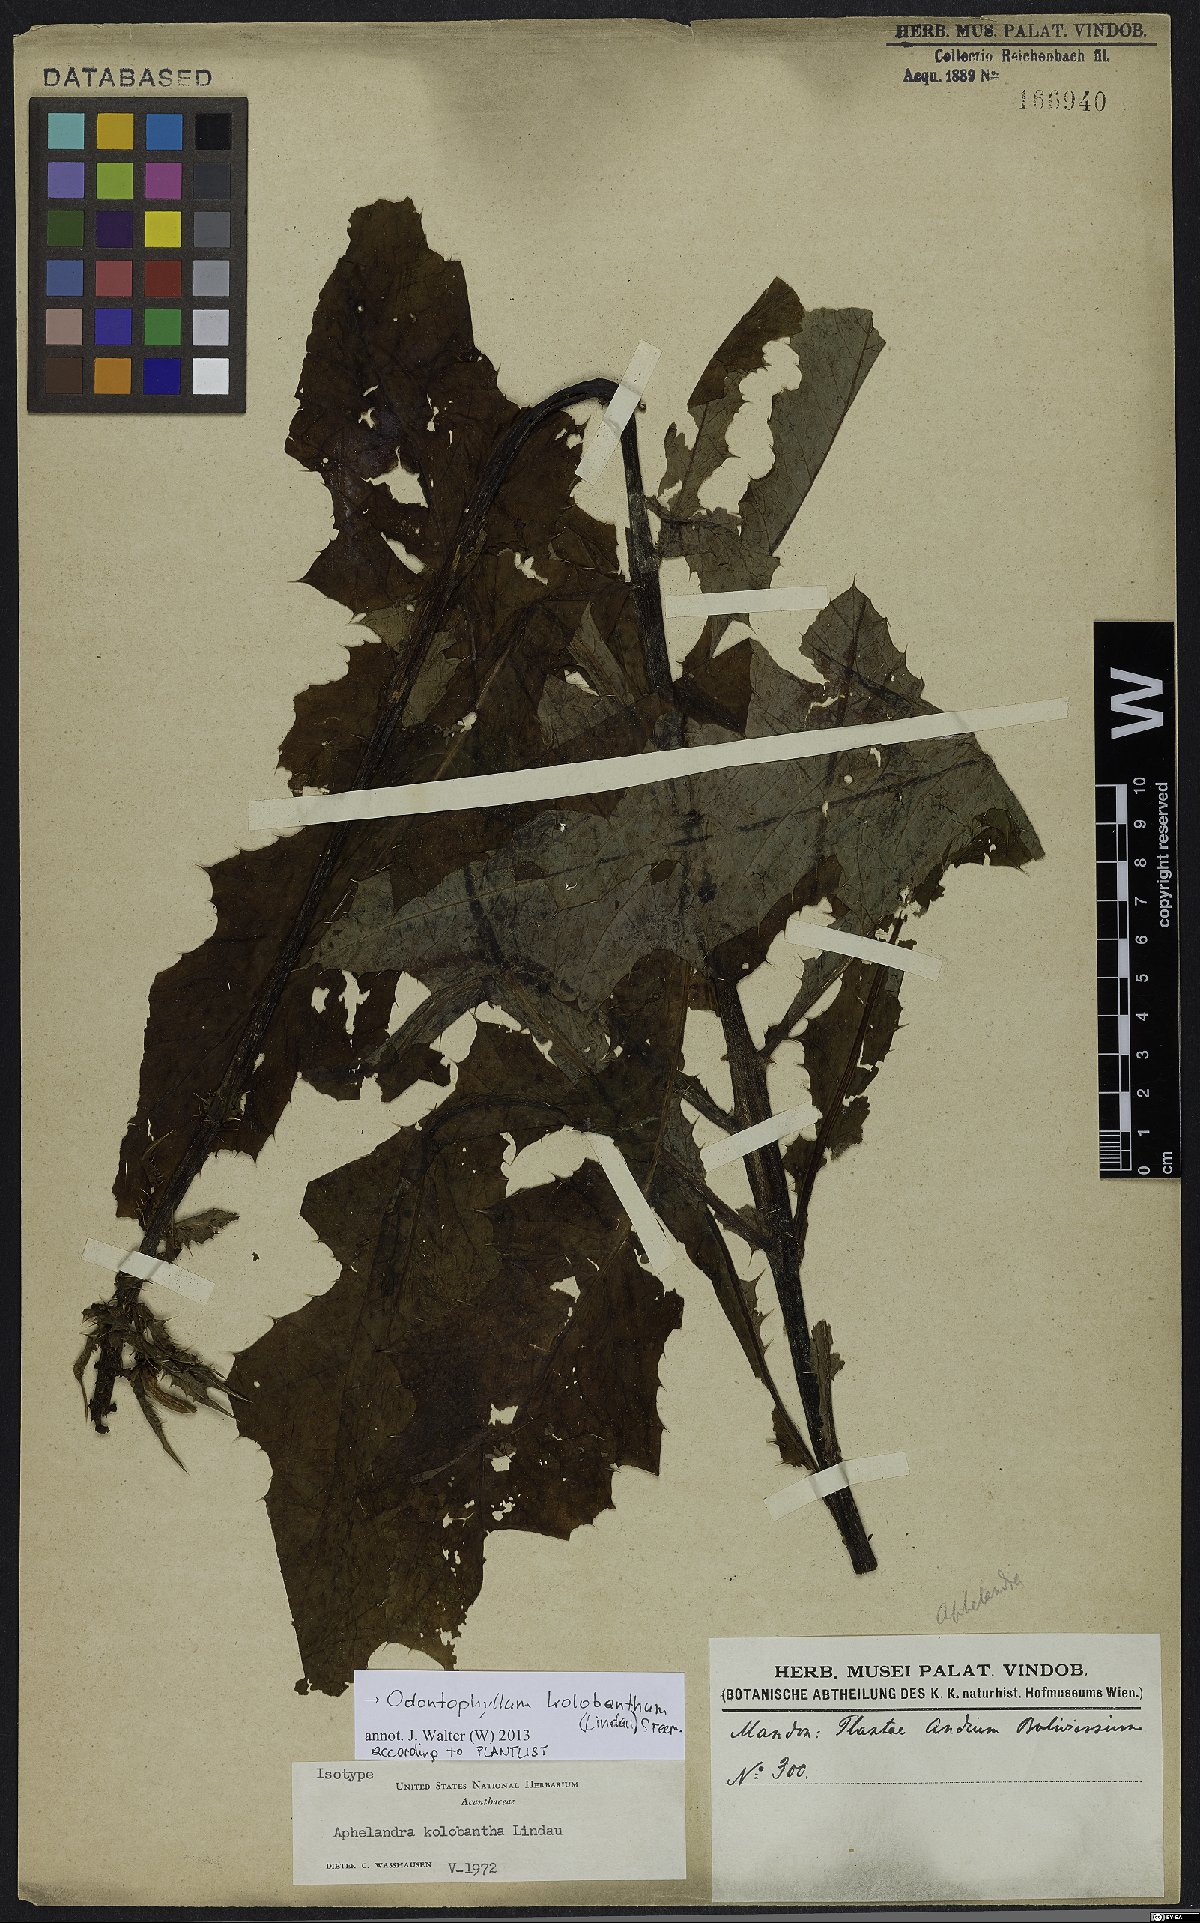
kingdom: Plantae
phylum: Tracheophyta
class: Magnoliopsida
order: Lamiales
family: Acanthaceae
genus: Aphelandra
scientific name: Aphelandra kolobantha
